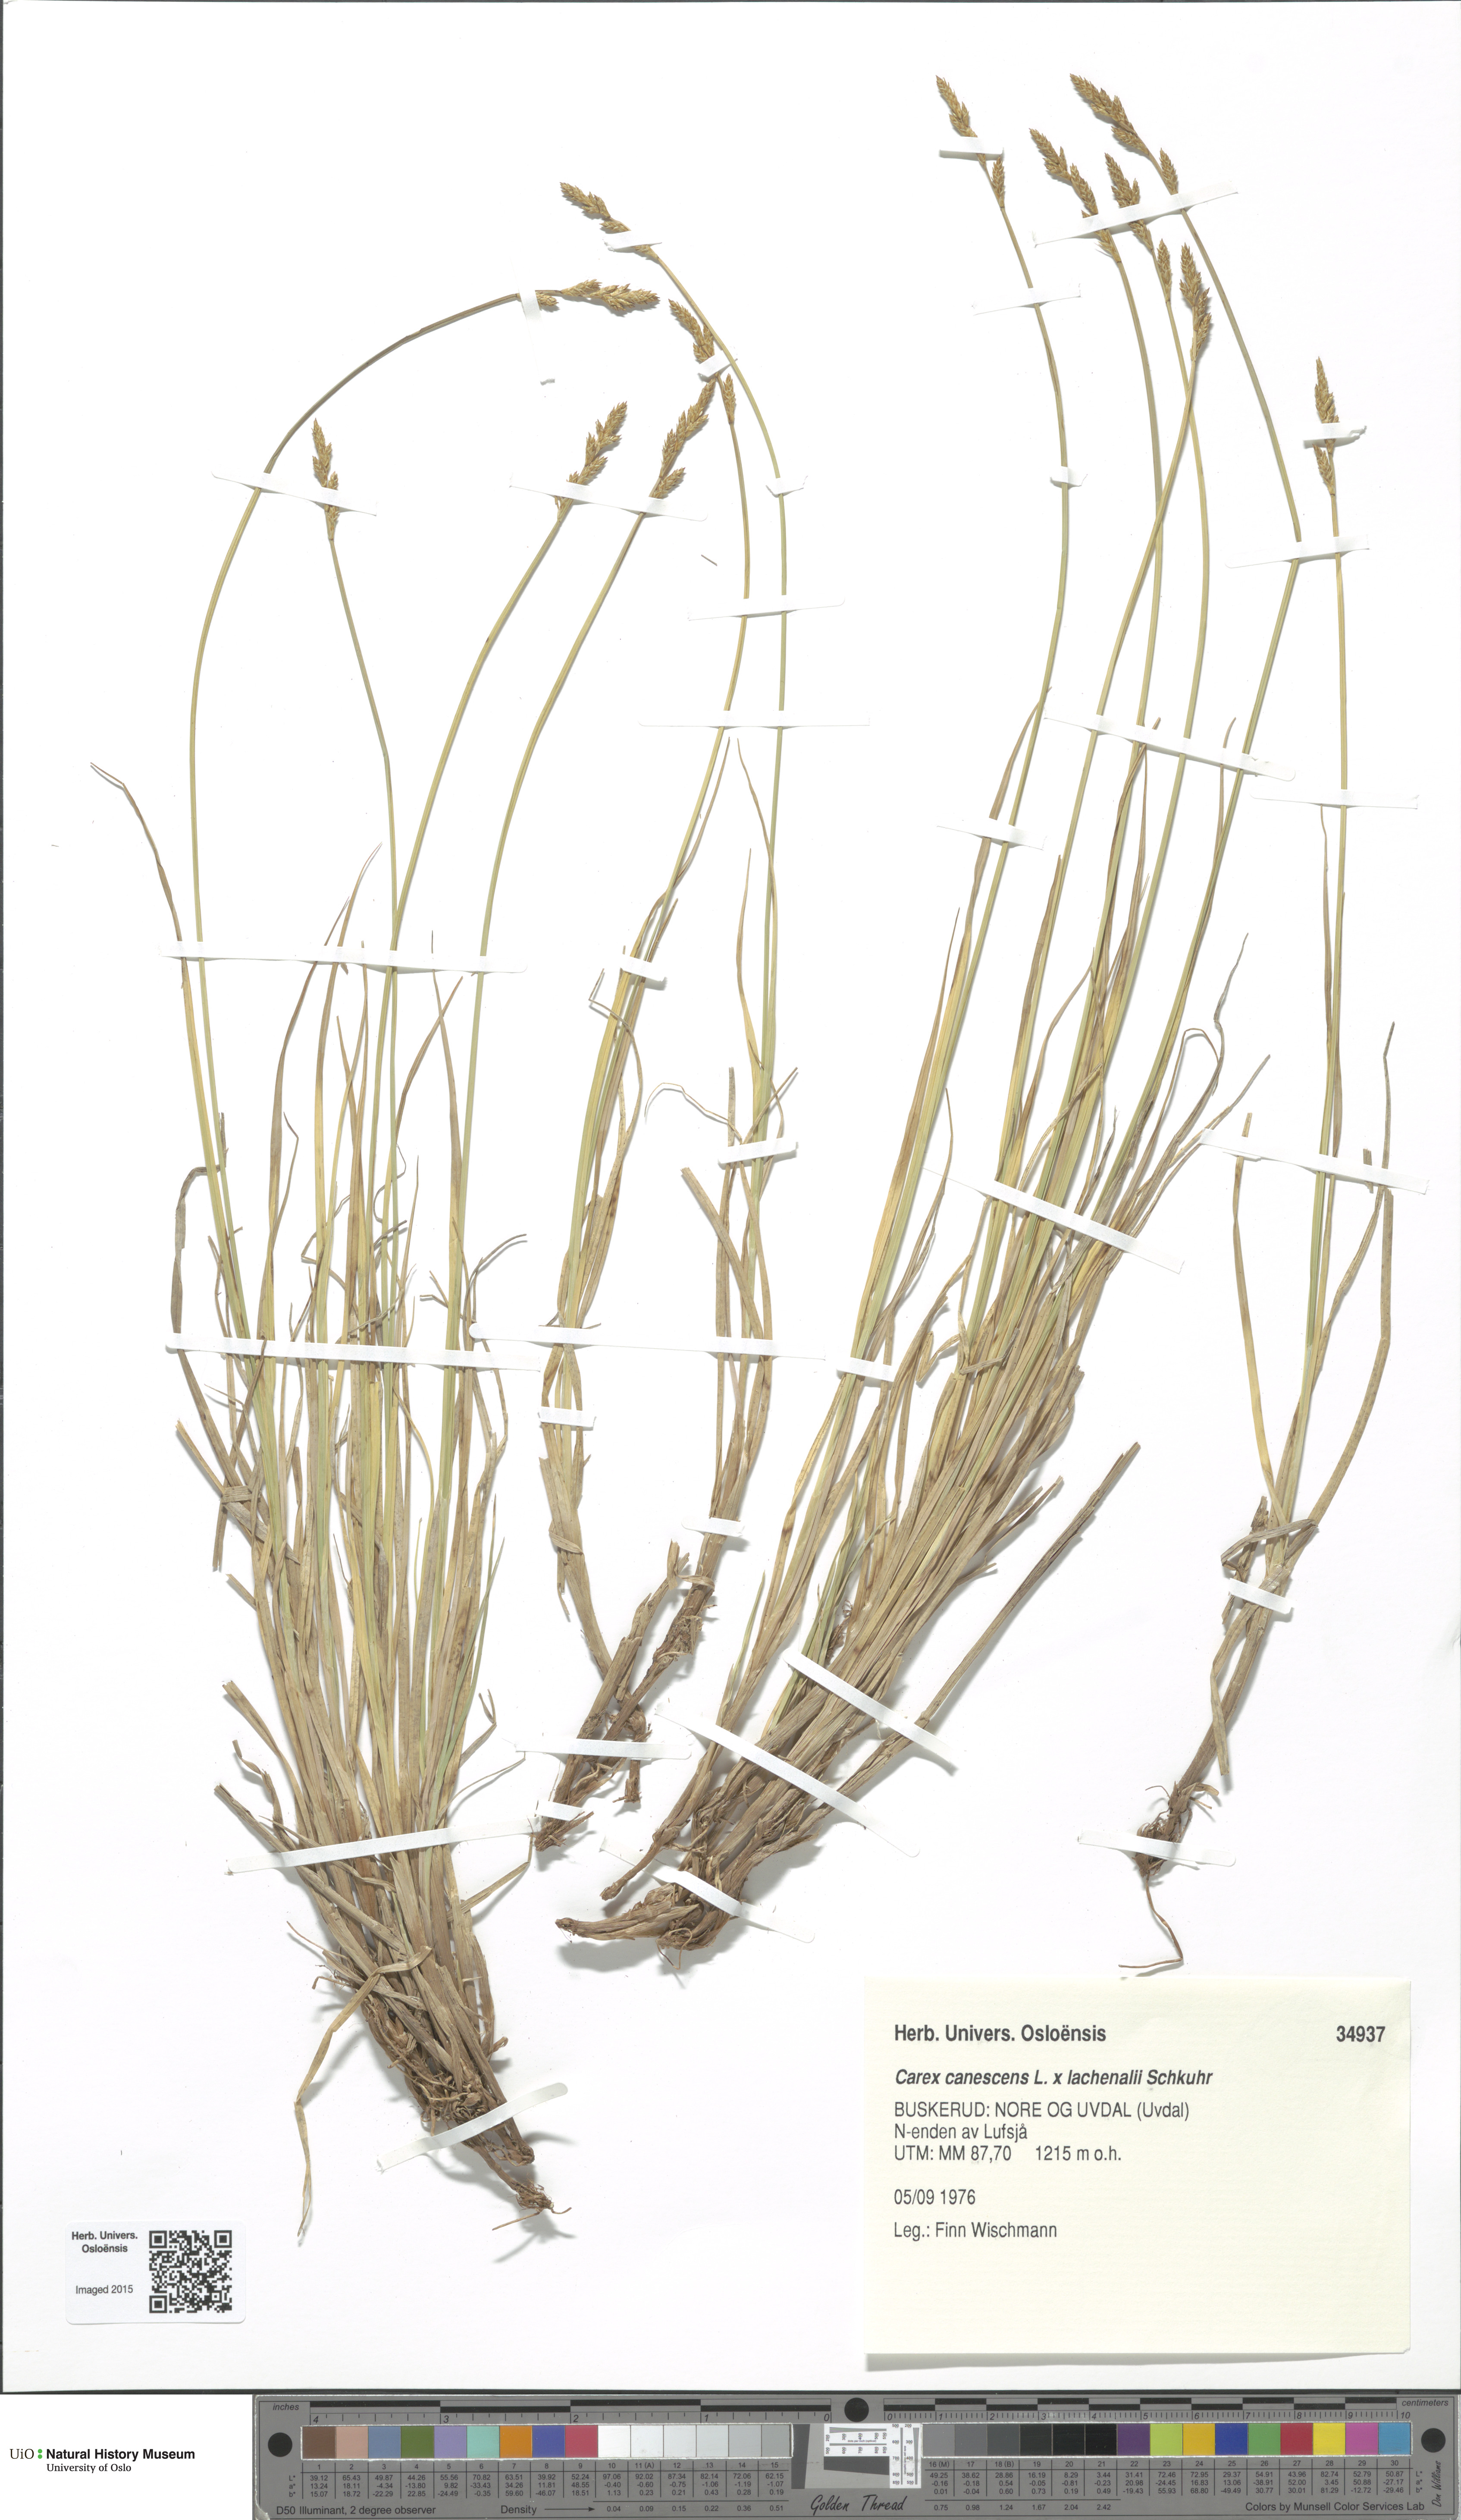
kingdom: Plantae
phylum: Tracheophyta
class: Liliopsida
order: Poales
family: Cyperaceae
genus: Carex
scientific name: Carex
